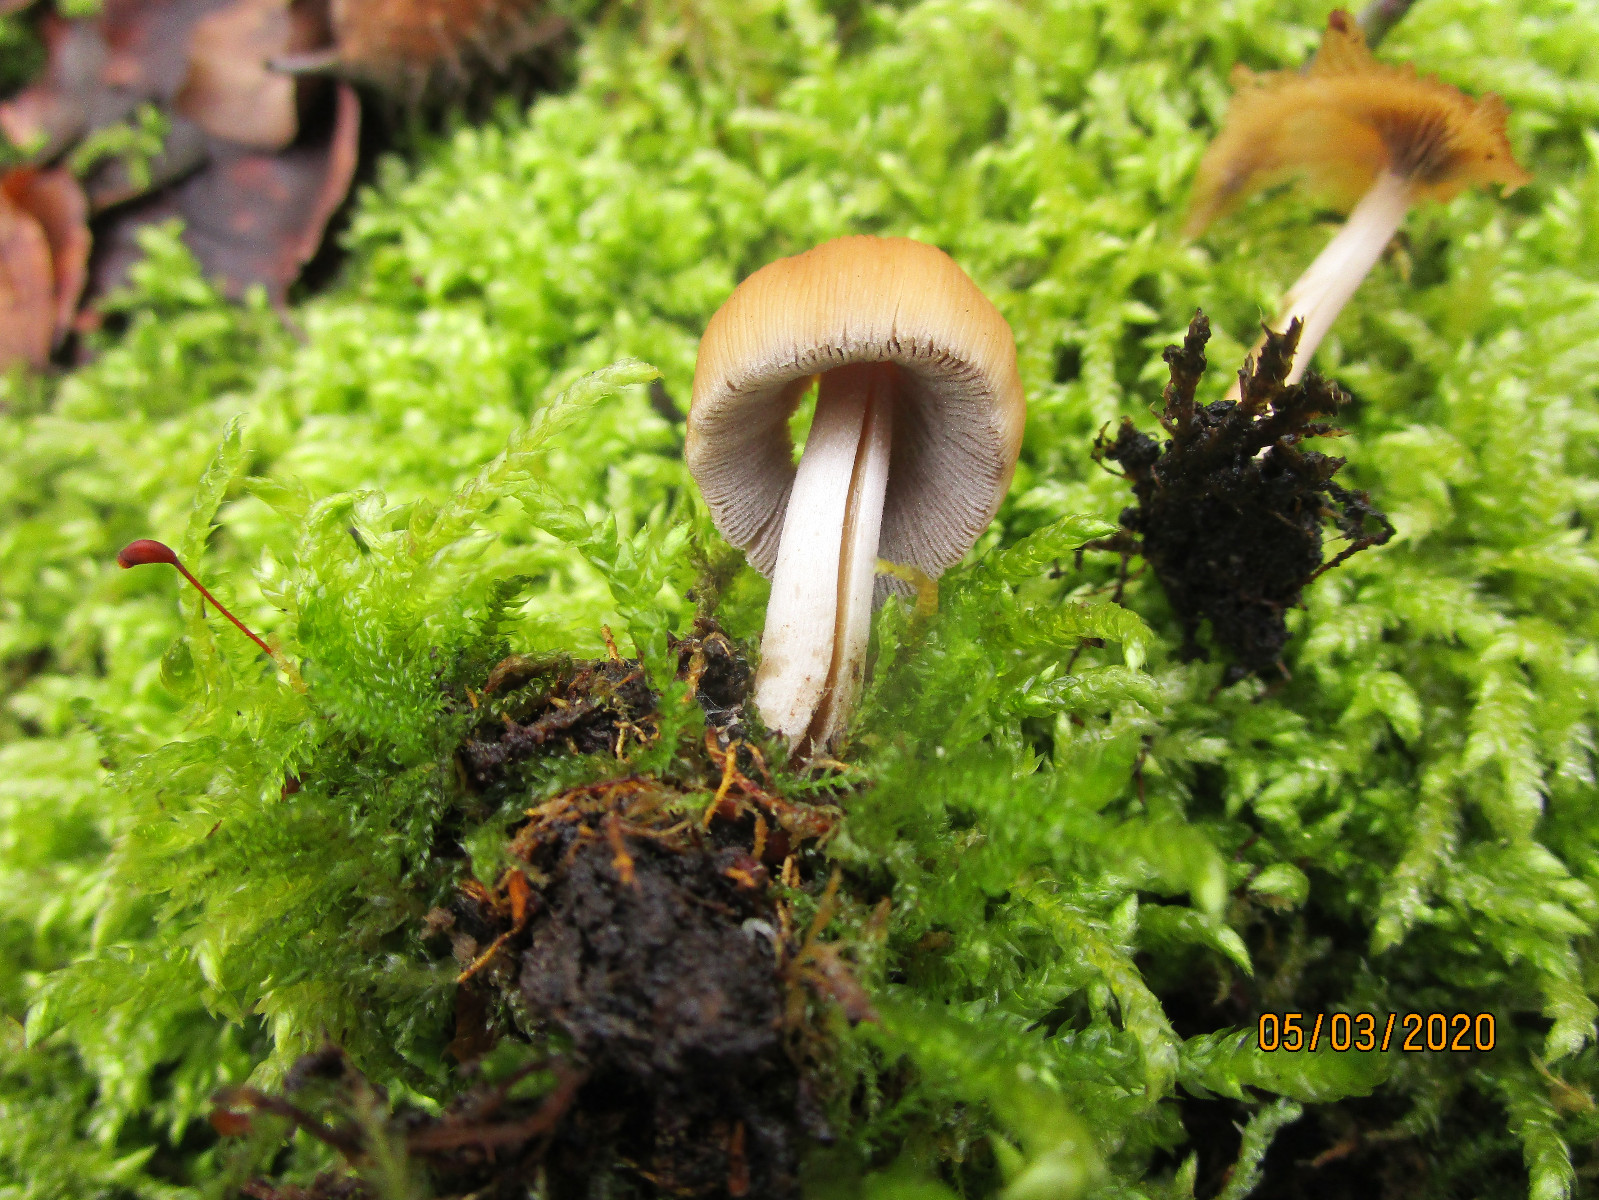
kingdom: Fungi
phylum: Basidiomycota
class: Agaricomycetes
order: Agaricales
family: Psathyrellaceae
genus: Coprinellus
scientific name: Coprinellus
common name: blækhat
